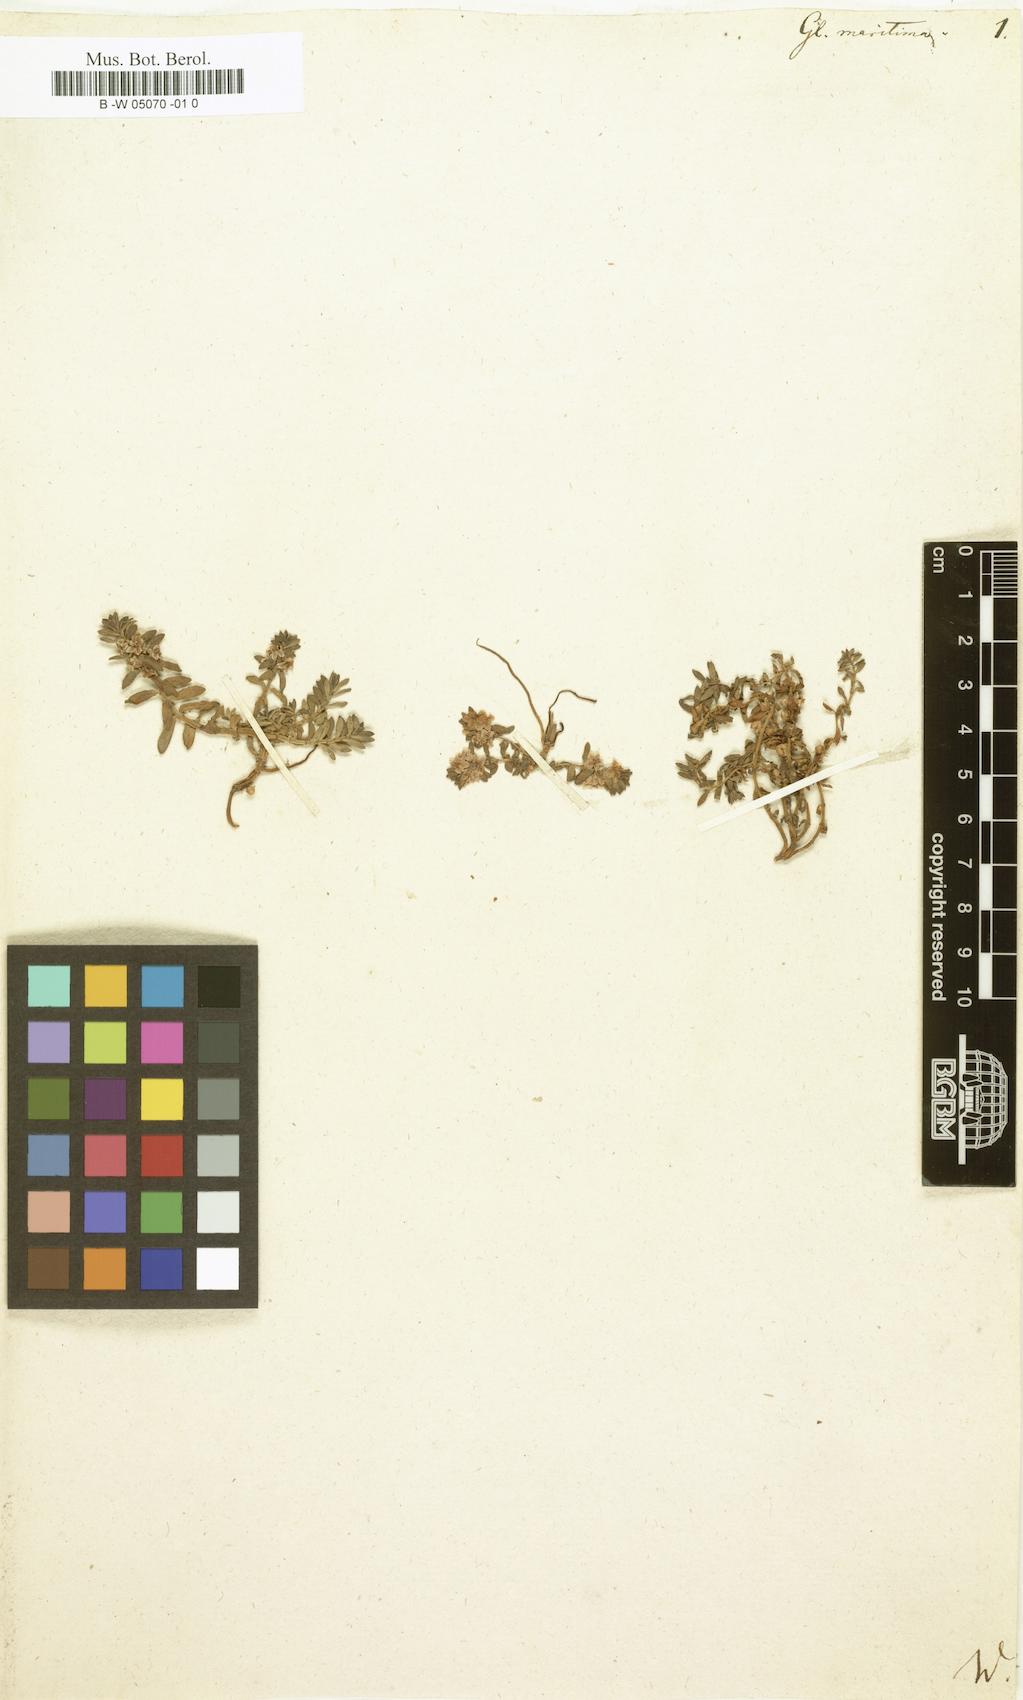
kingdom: Plantae
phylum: Tracheophyta
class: Magnoliopsida
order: Ericales
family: Primulaceae
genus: Lysimachia
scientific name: Lysimachia maritima
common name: Sea milkwort
